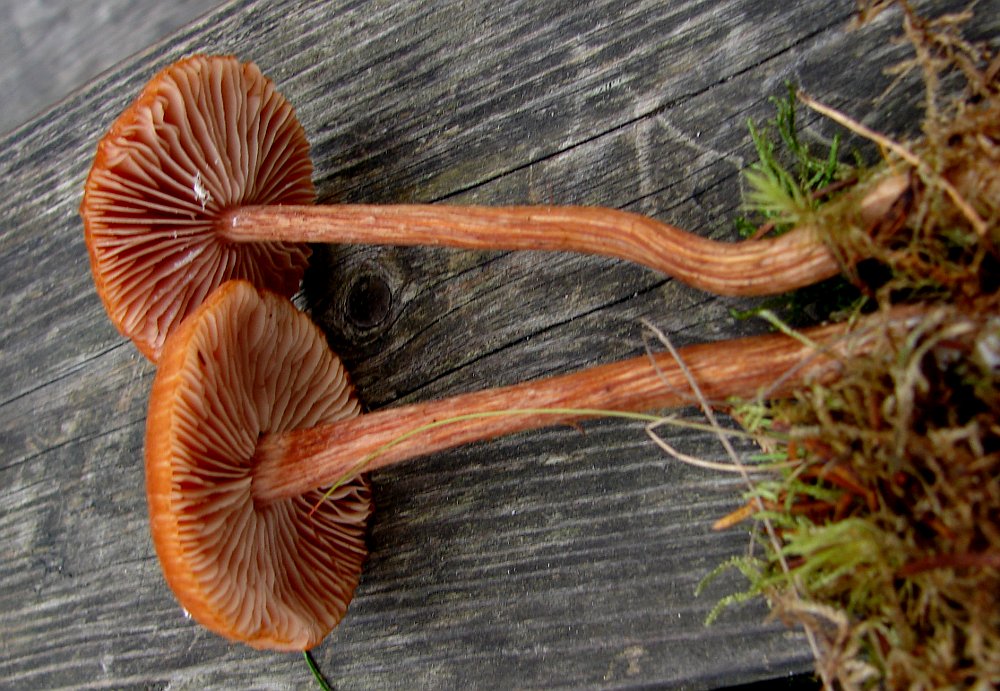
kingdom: Fungi
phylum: Basidiomycota
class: Agaricomycetes
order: Agaricales
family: Hydnangiaceae
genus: Laccaria
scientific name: Laccaria proxima
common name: stor ametysthat
